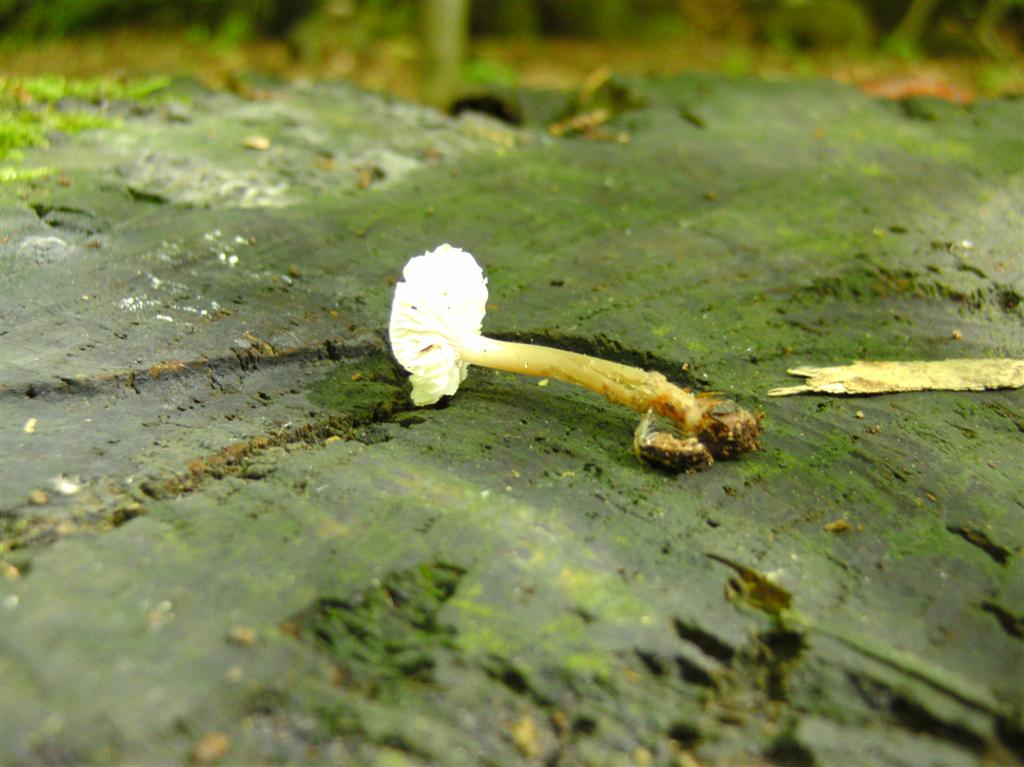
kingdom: Fungi
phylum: Basidiomycota
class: Agaricomycetes
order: Agaricales
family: Mycenaceae
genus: Mycena
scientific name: Mycena galericulata
